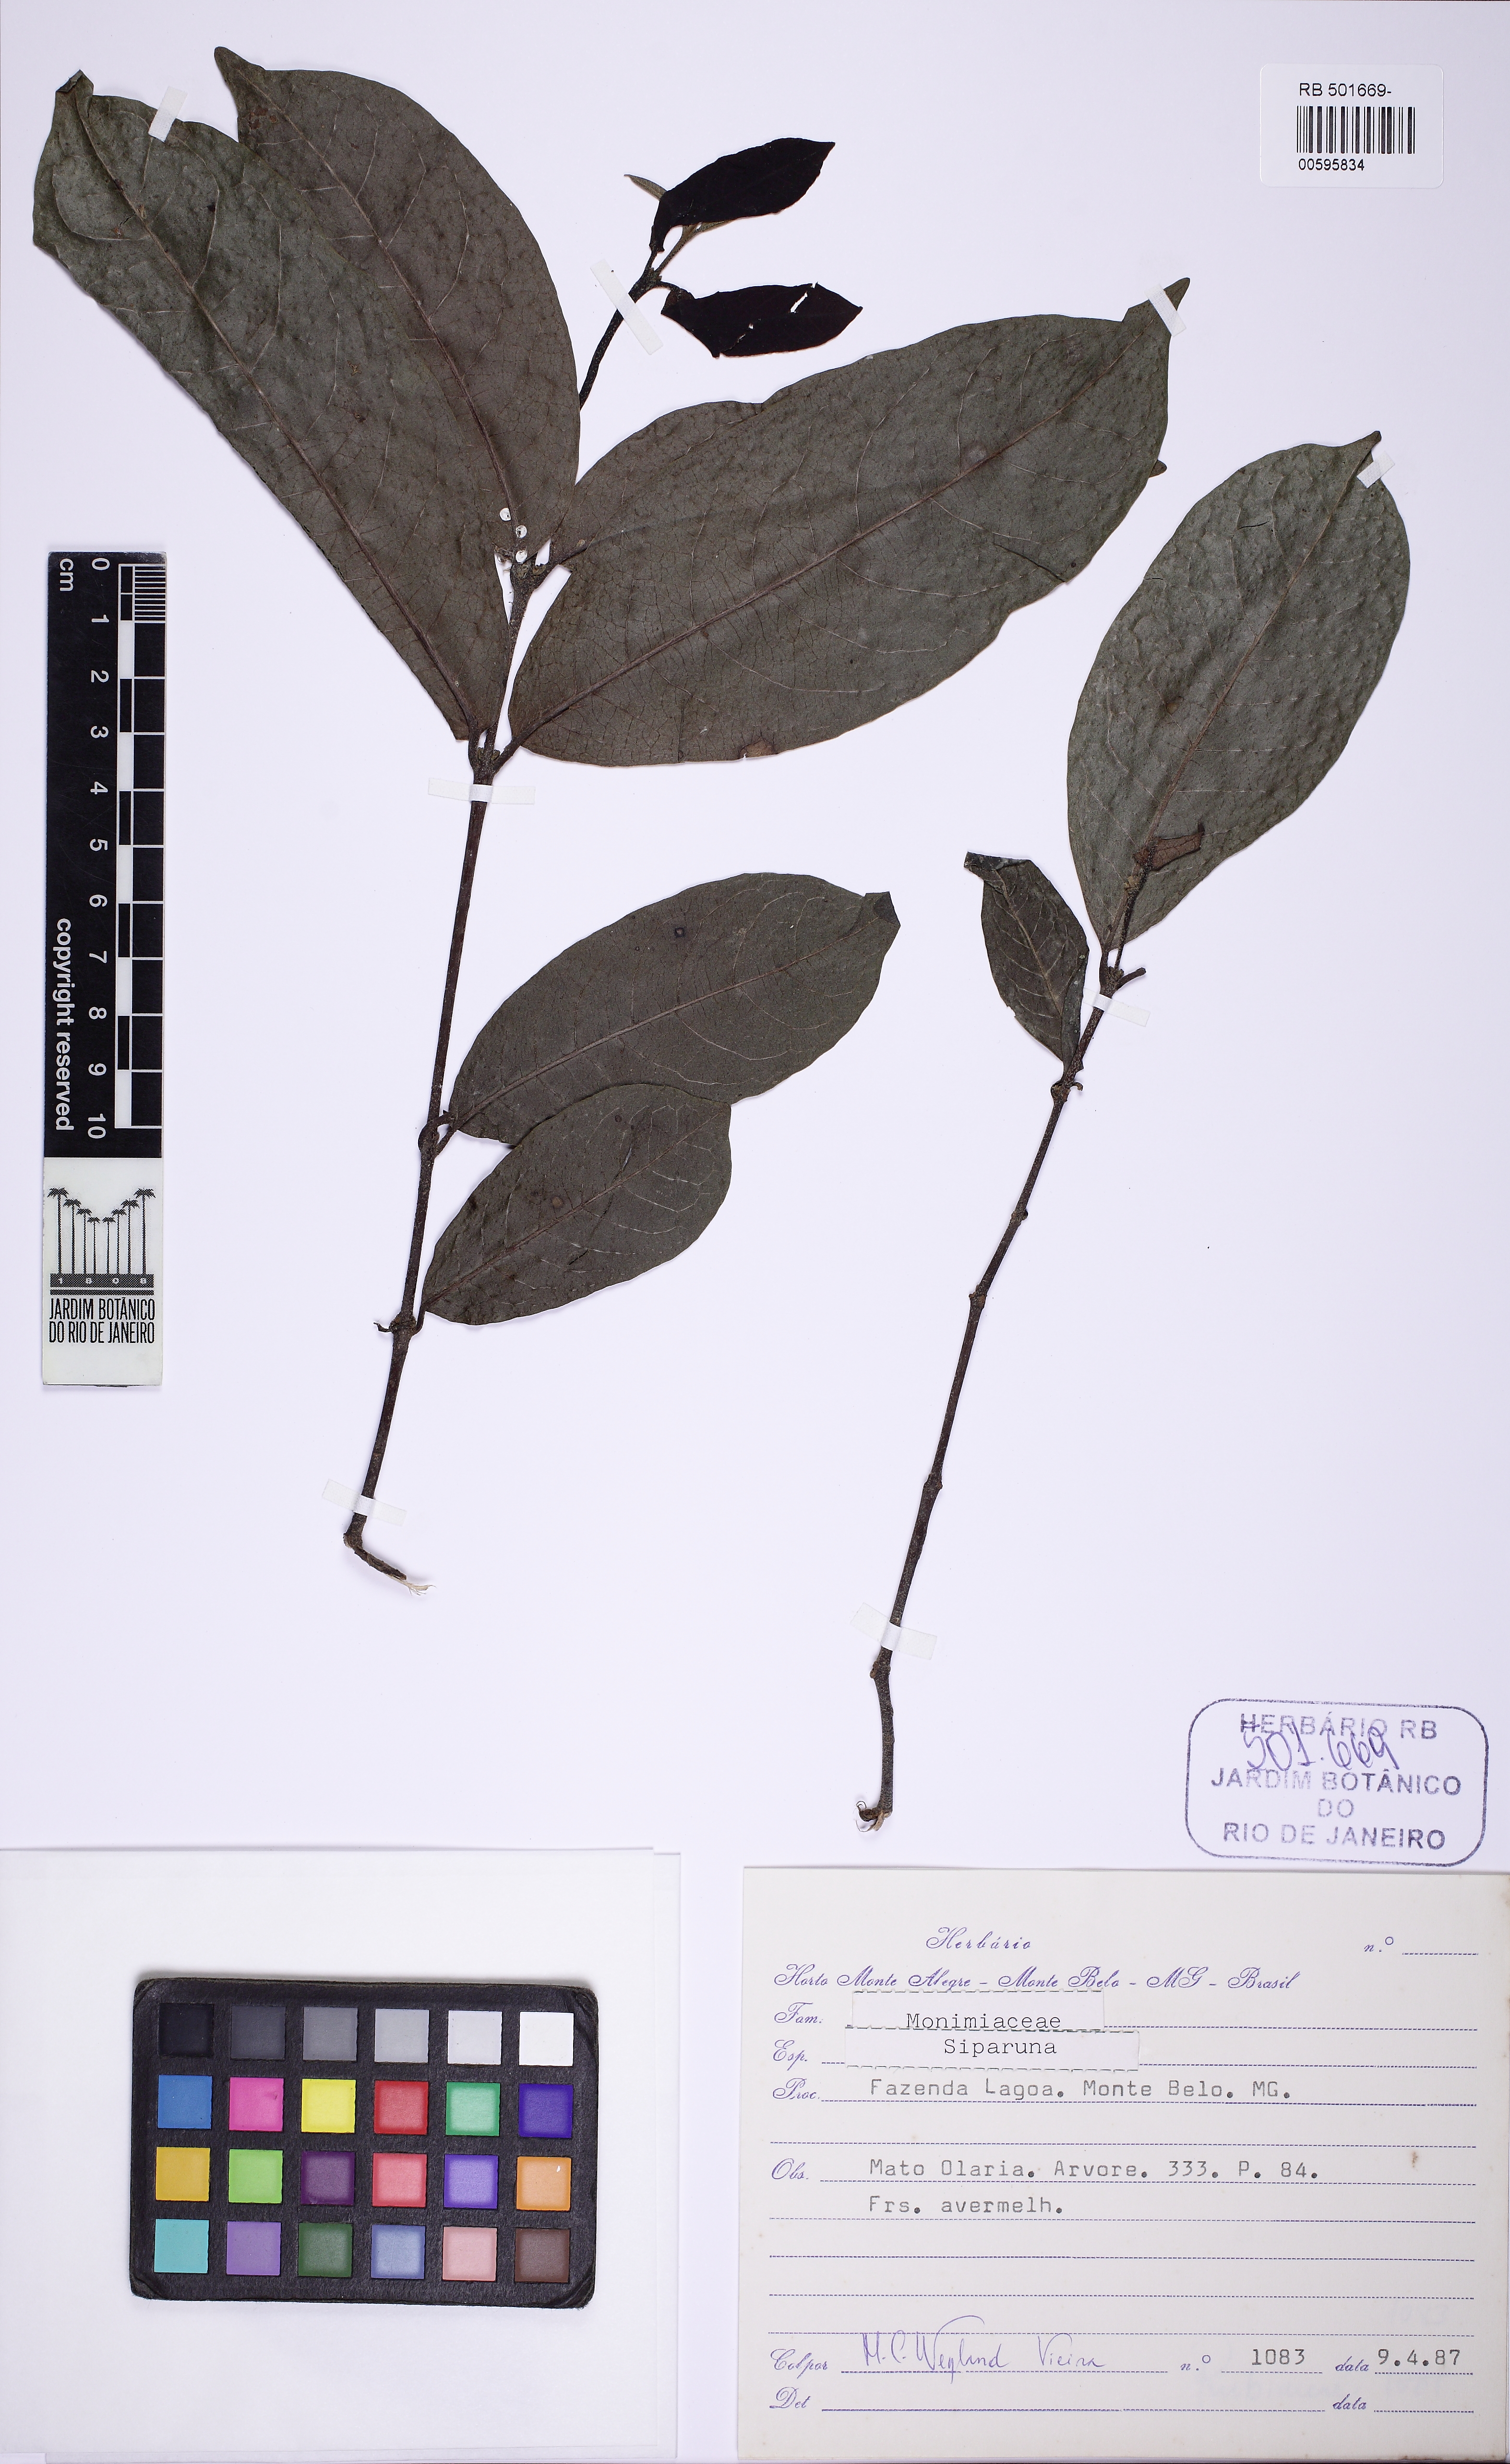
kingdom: Plantae
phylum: Tracheophyta
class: Magnoliopsida
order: Laurales
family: Siparunaceae
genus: Siparuna
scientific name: Siparuna guianensis
